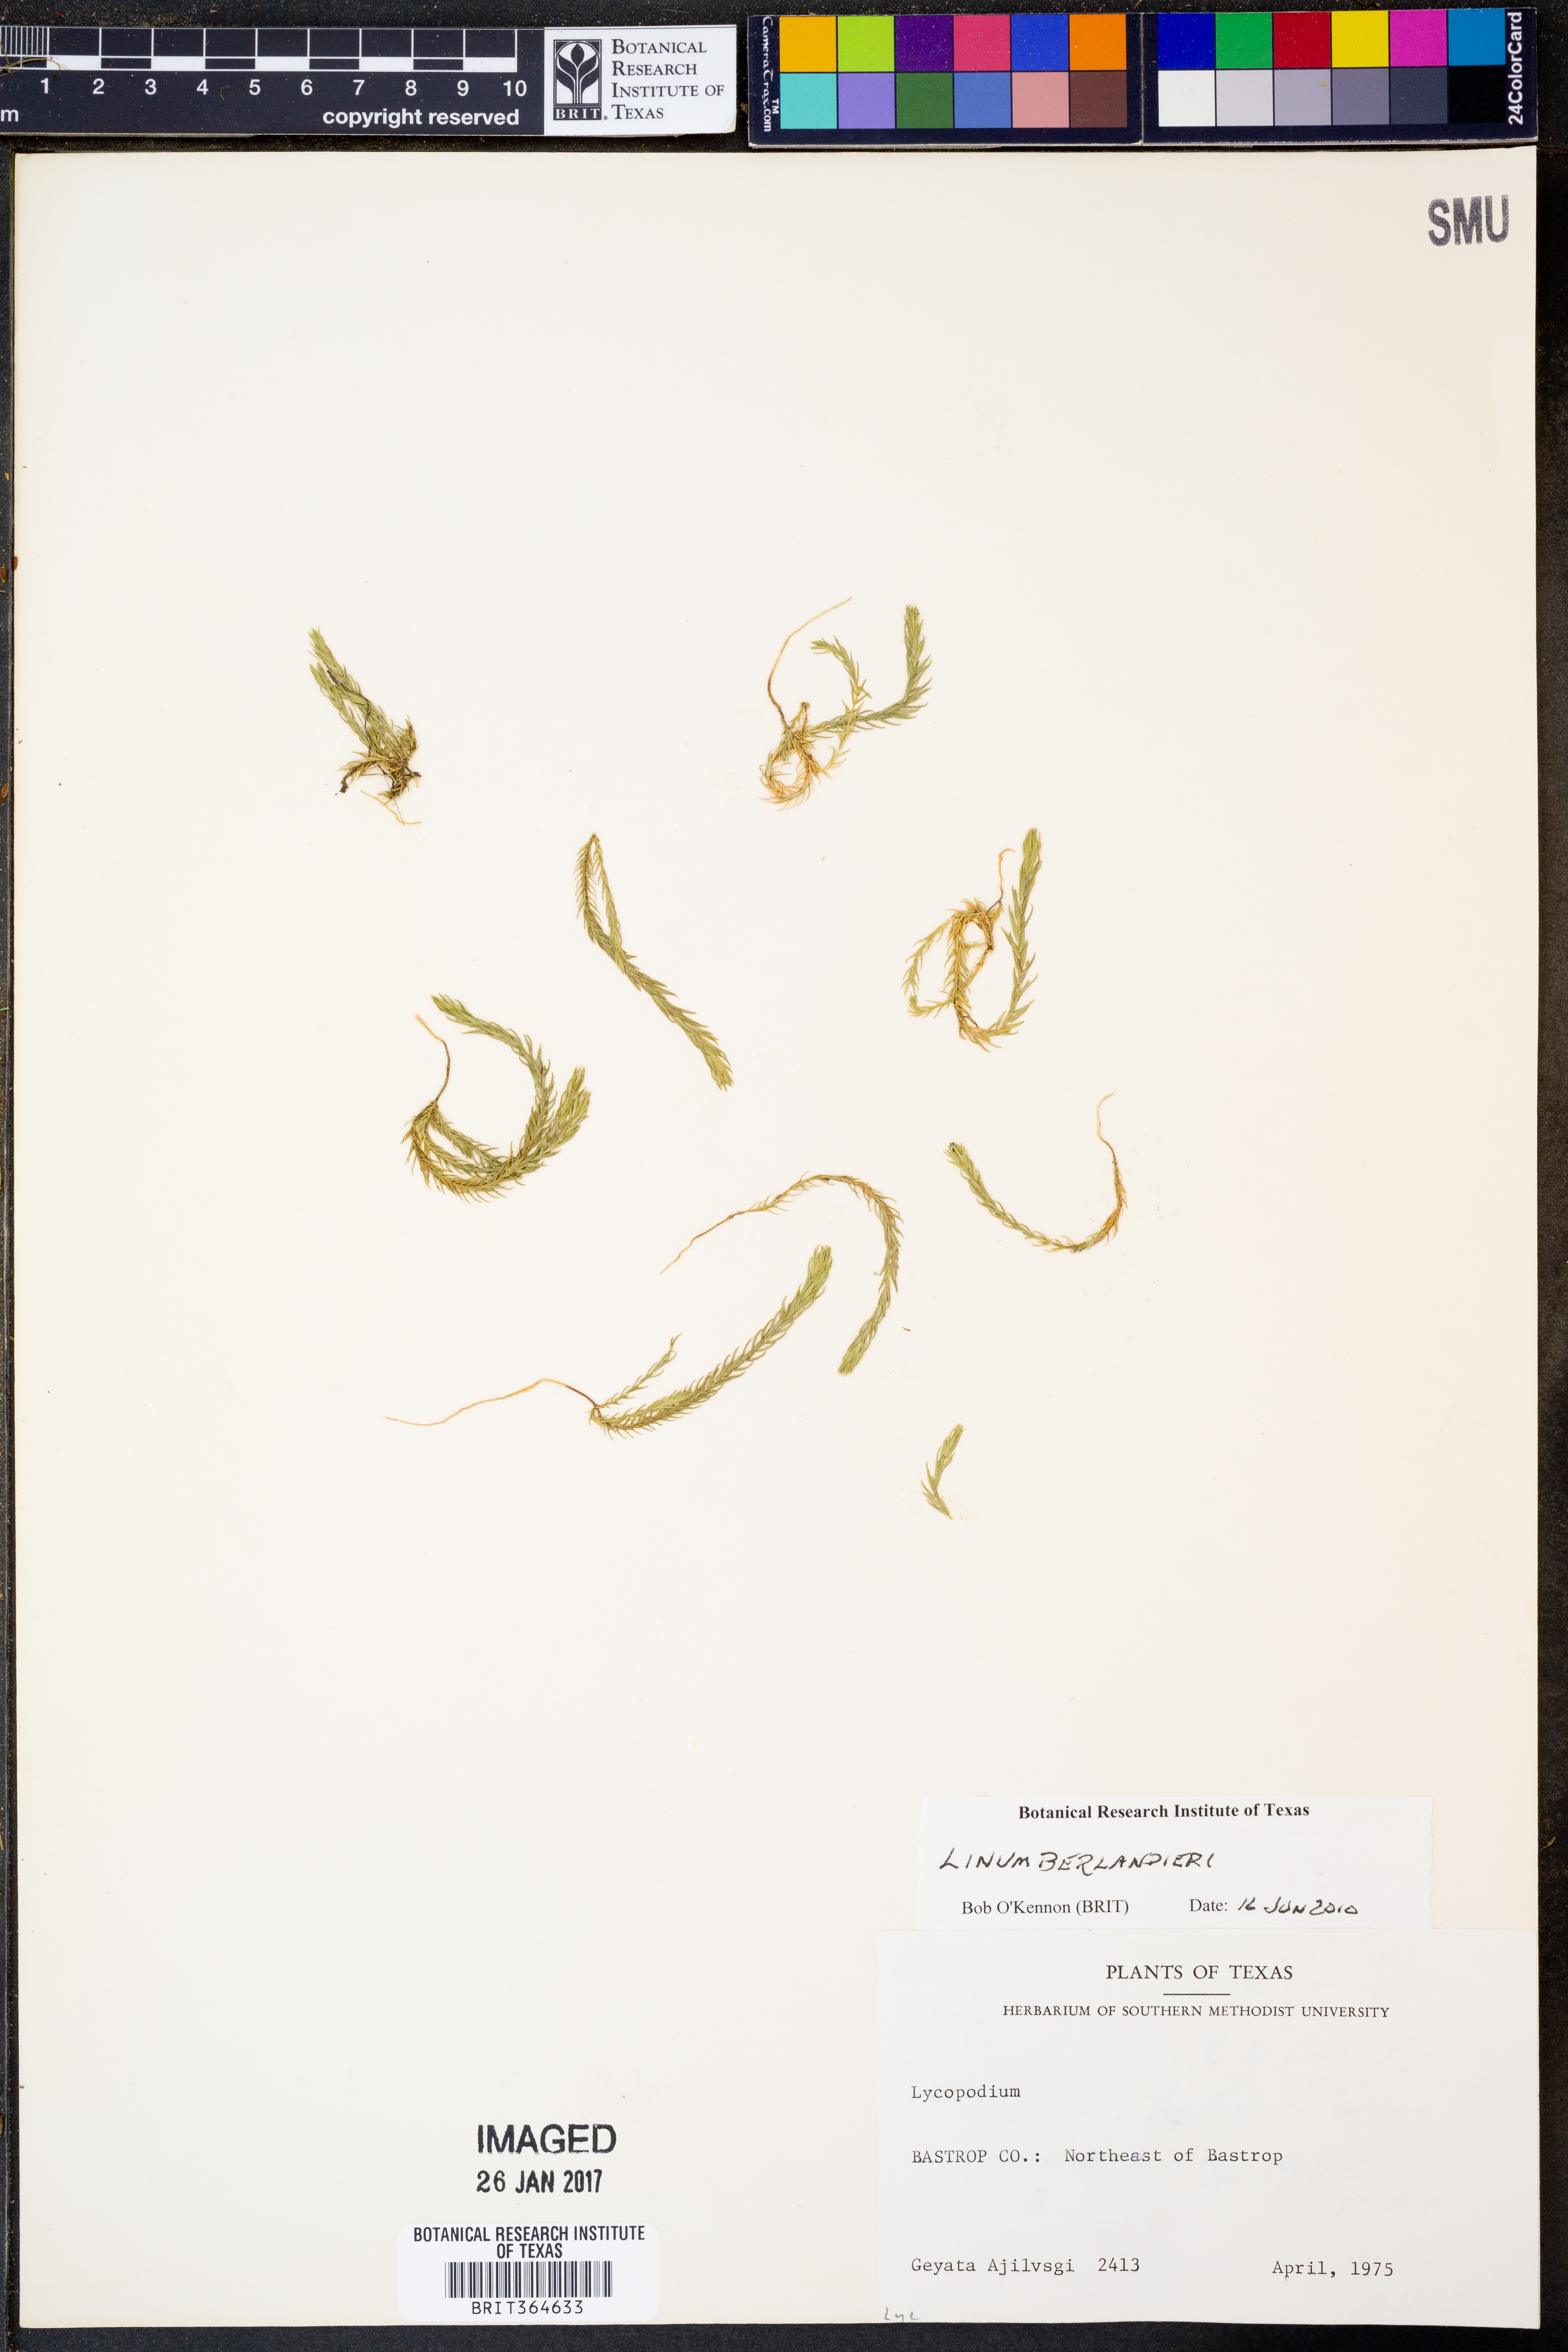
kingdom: Plantae
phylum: Tracheophyta
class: Magnoliopsida
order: Malpighiales
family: Linaceae
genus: Linum
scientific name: Linum berlandieri
